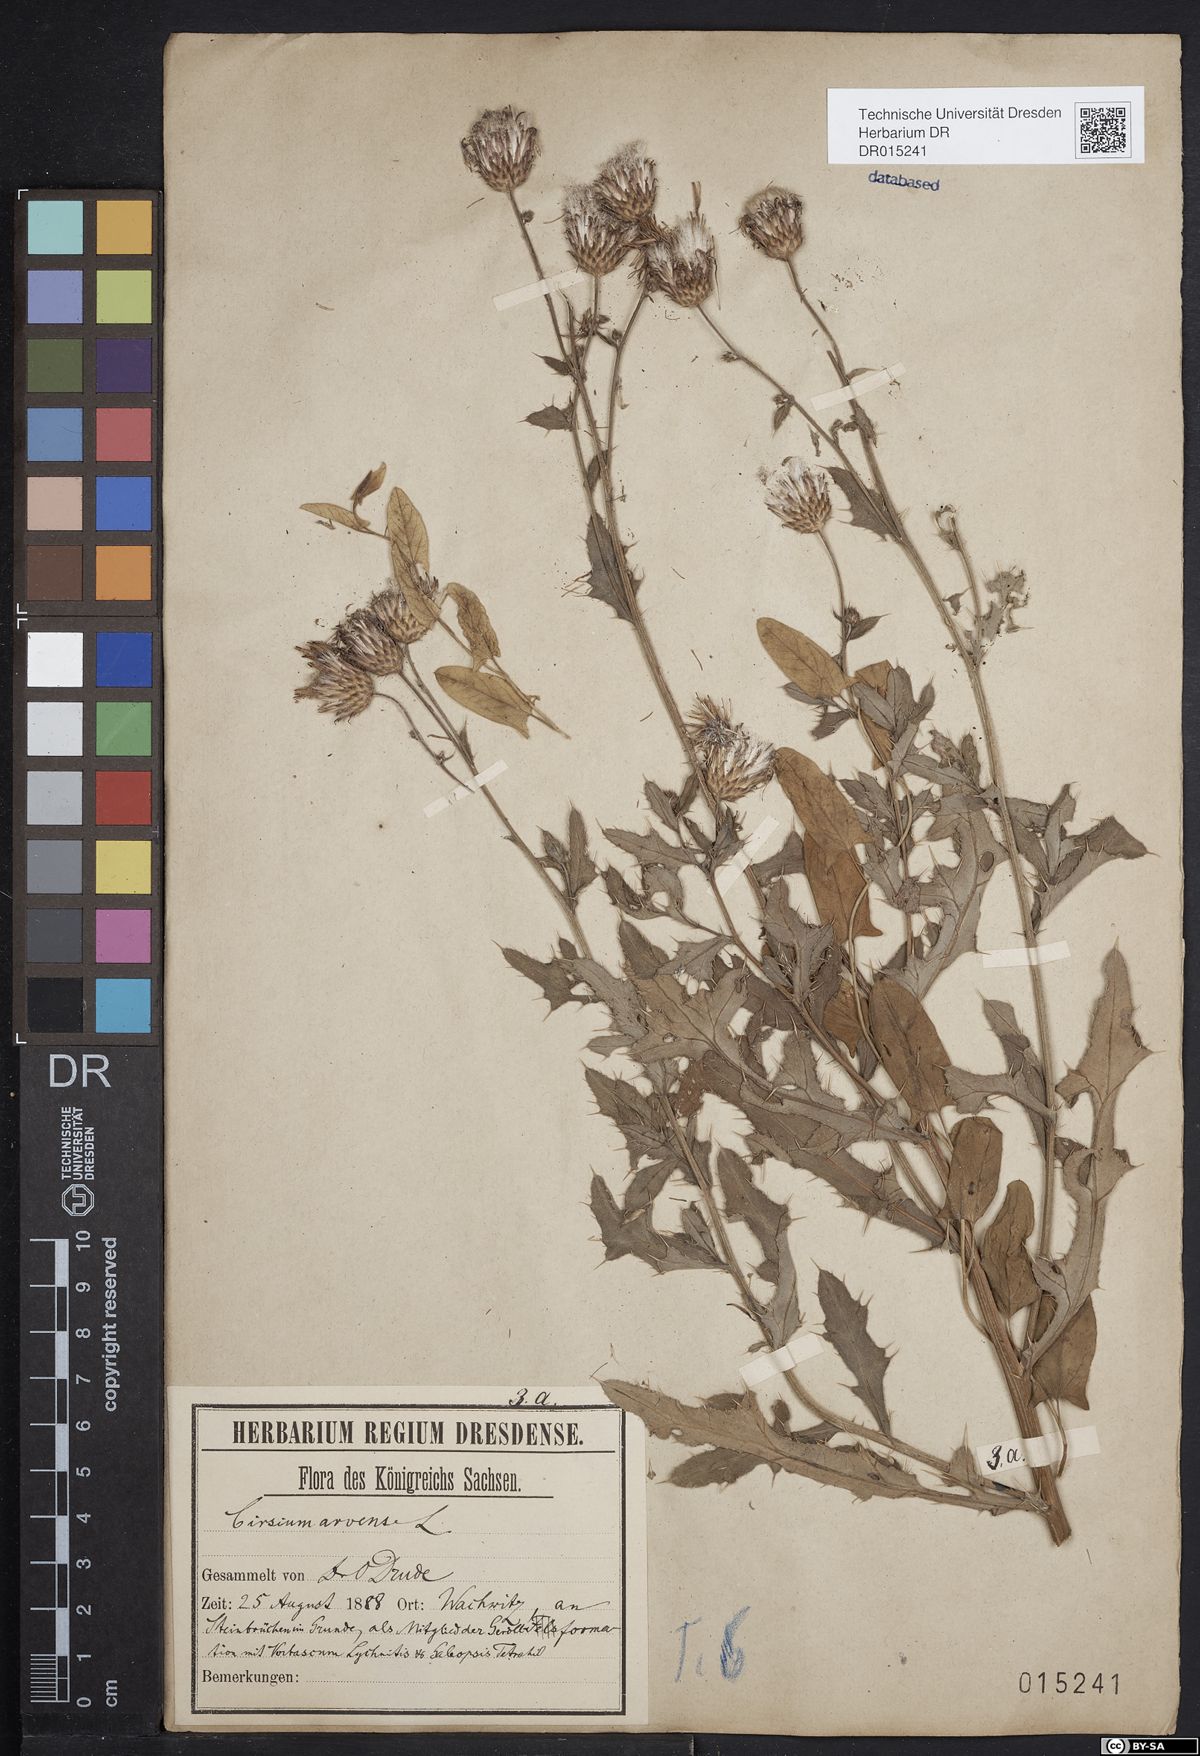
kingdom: Plantae
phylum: Tracheophyta
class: Magnoliopsida
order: Asterales
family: Asteraceae
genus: Cirsium
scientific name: Cirsium arvense
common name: Creeping thistle
